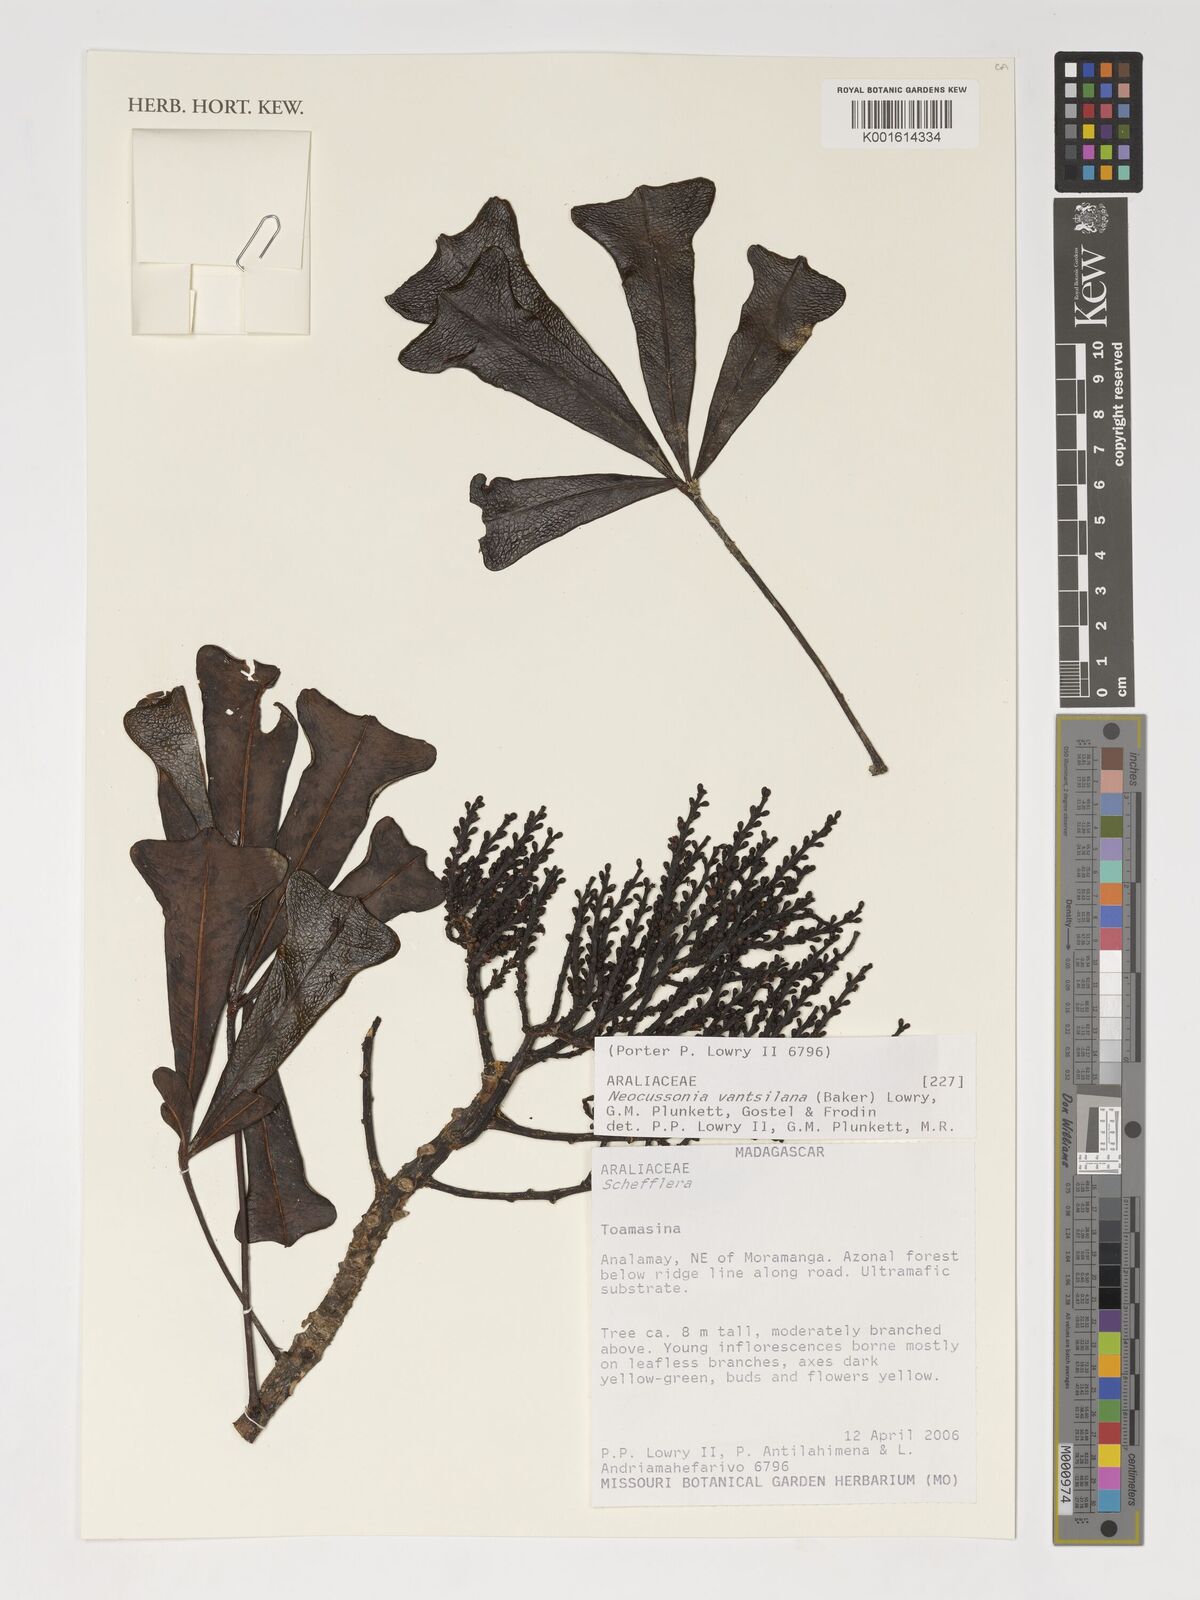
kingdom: Plantae
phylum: Tracheophyta
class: Magnoliopsida
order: Apiales
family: Araliaceae
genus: Neocussonia
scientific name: Neocussonia vantsilana
